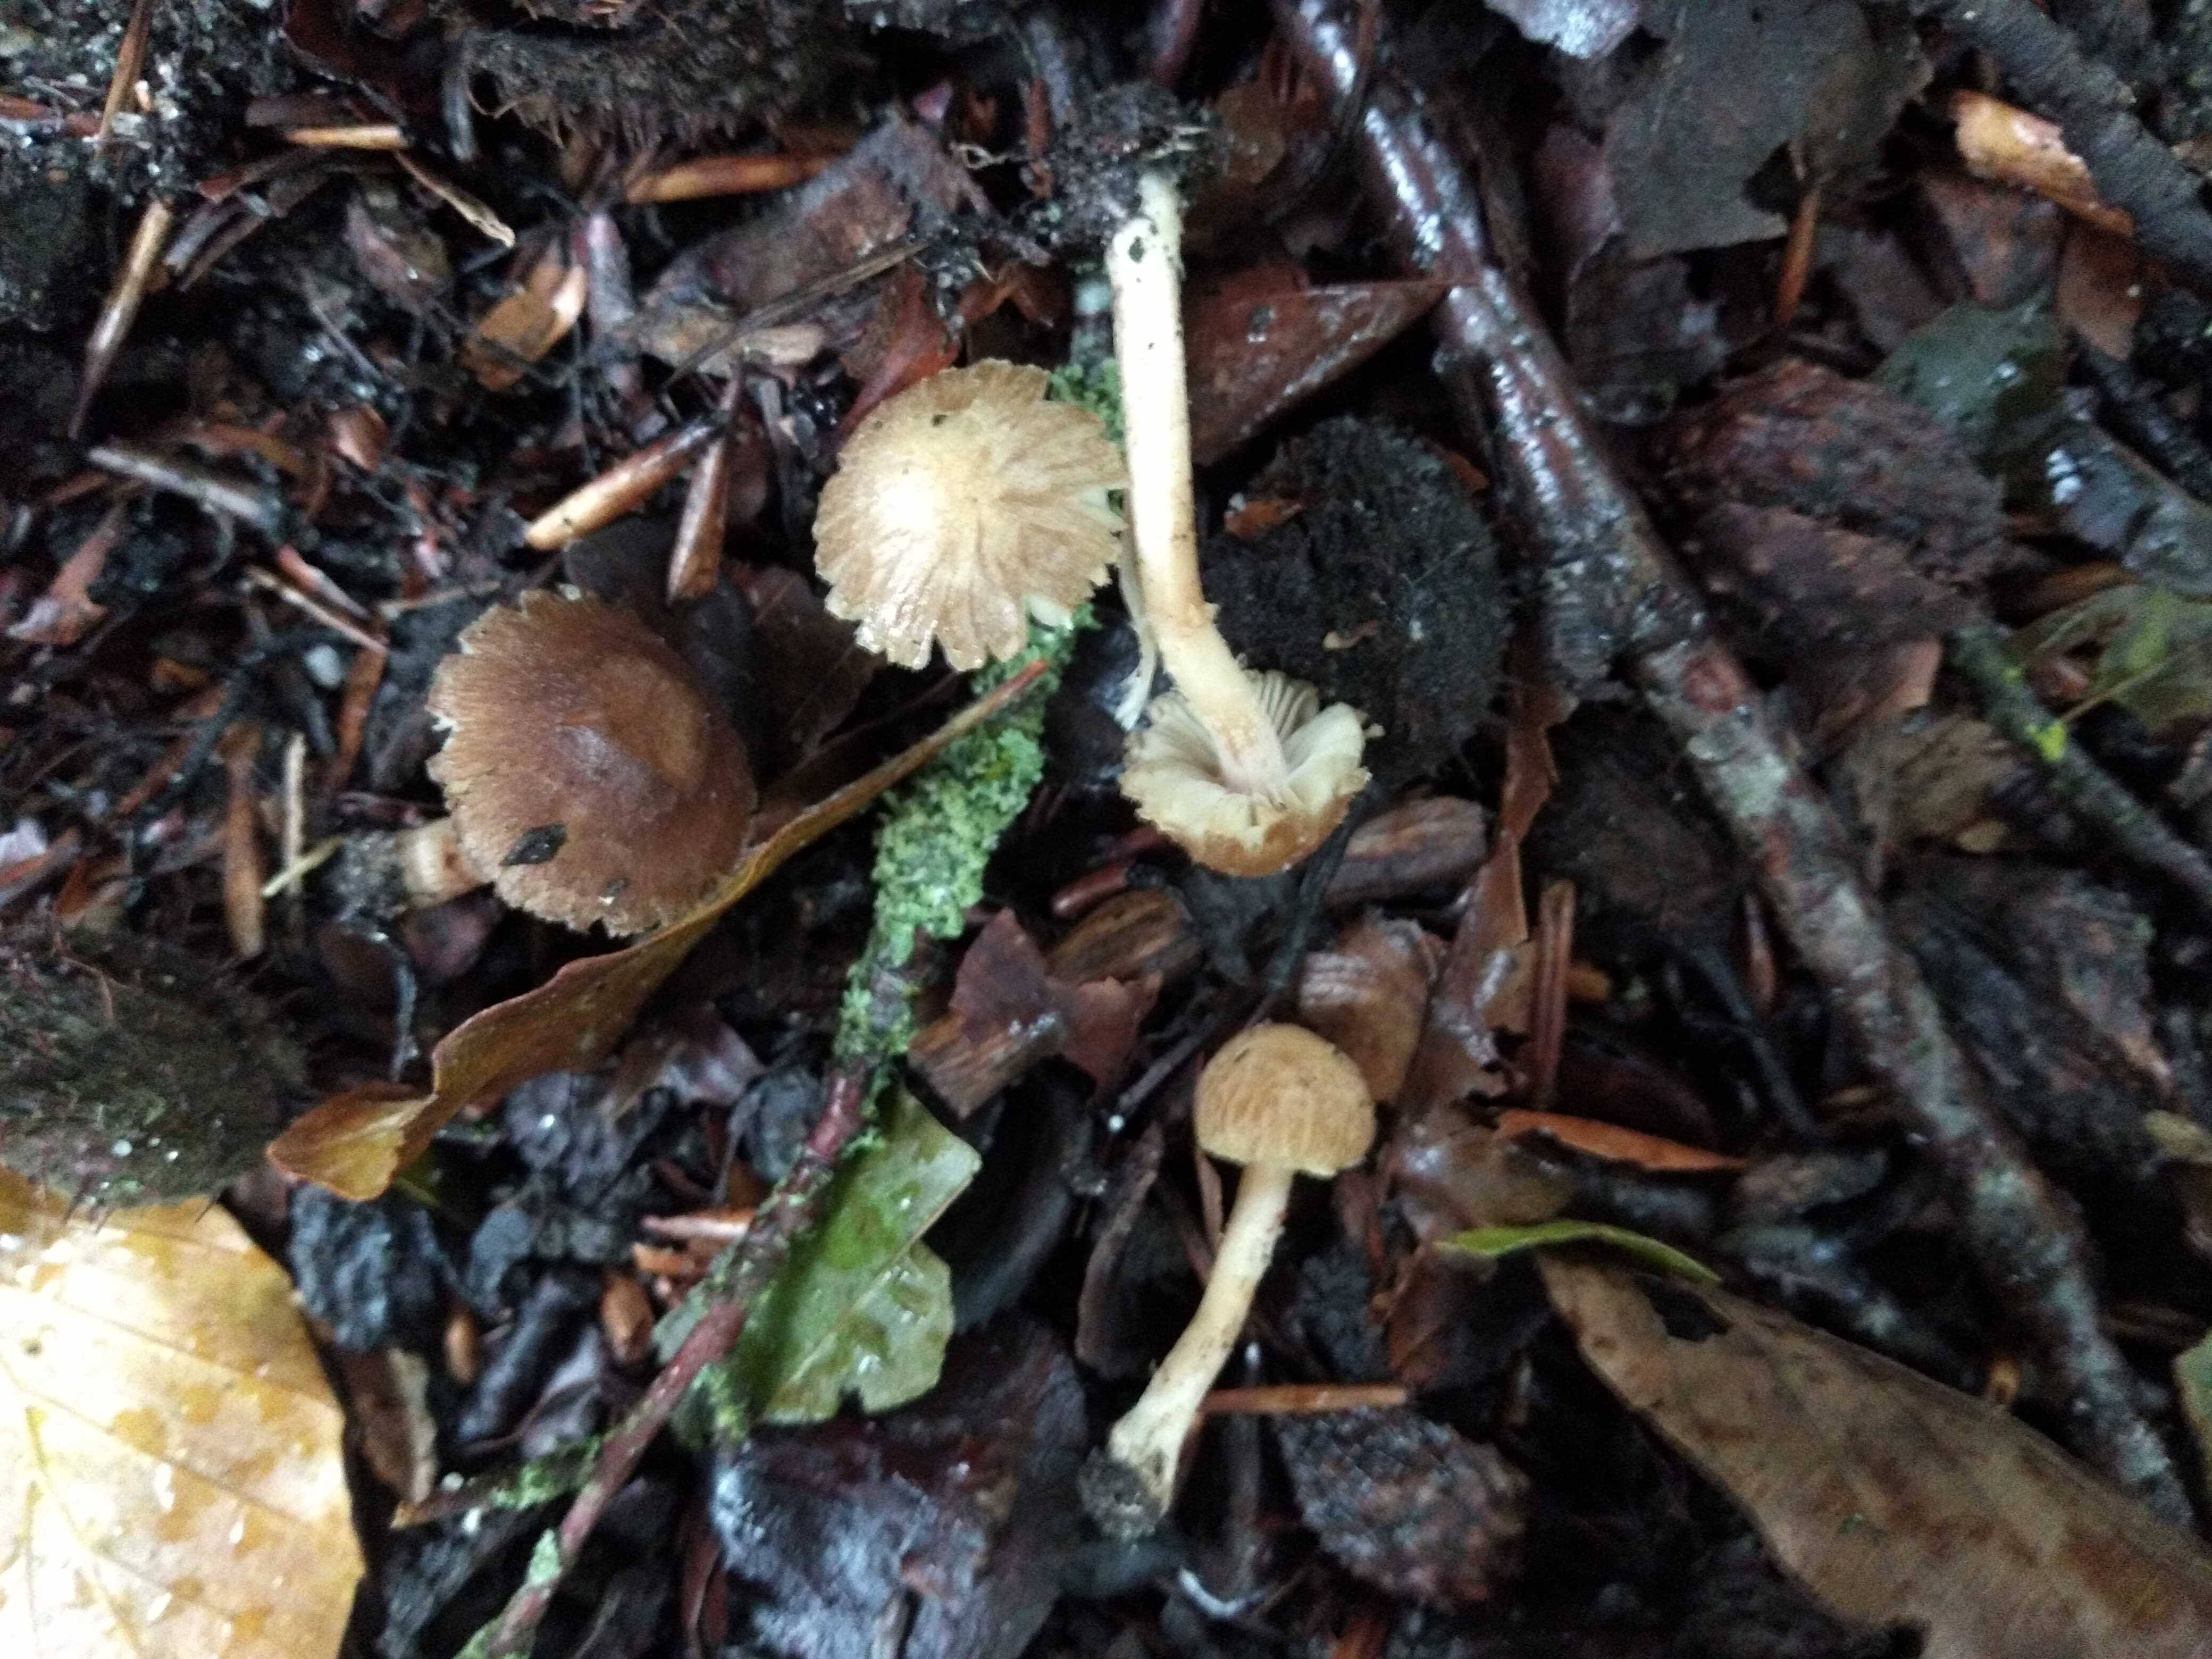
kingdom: Fungi
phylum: Basidiomycota
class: Agaricomycetes
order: Agaricales
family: Inocybaceae
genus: Inocybe
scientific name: Inocybe
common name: trævlhat
